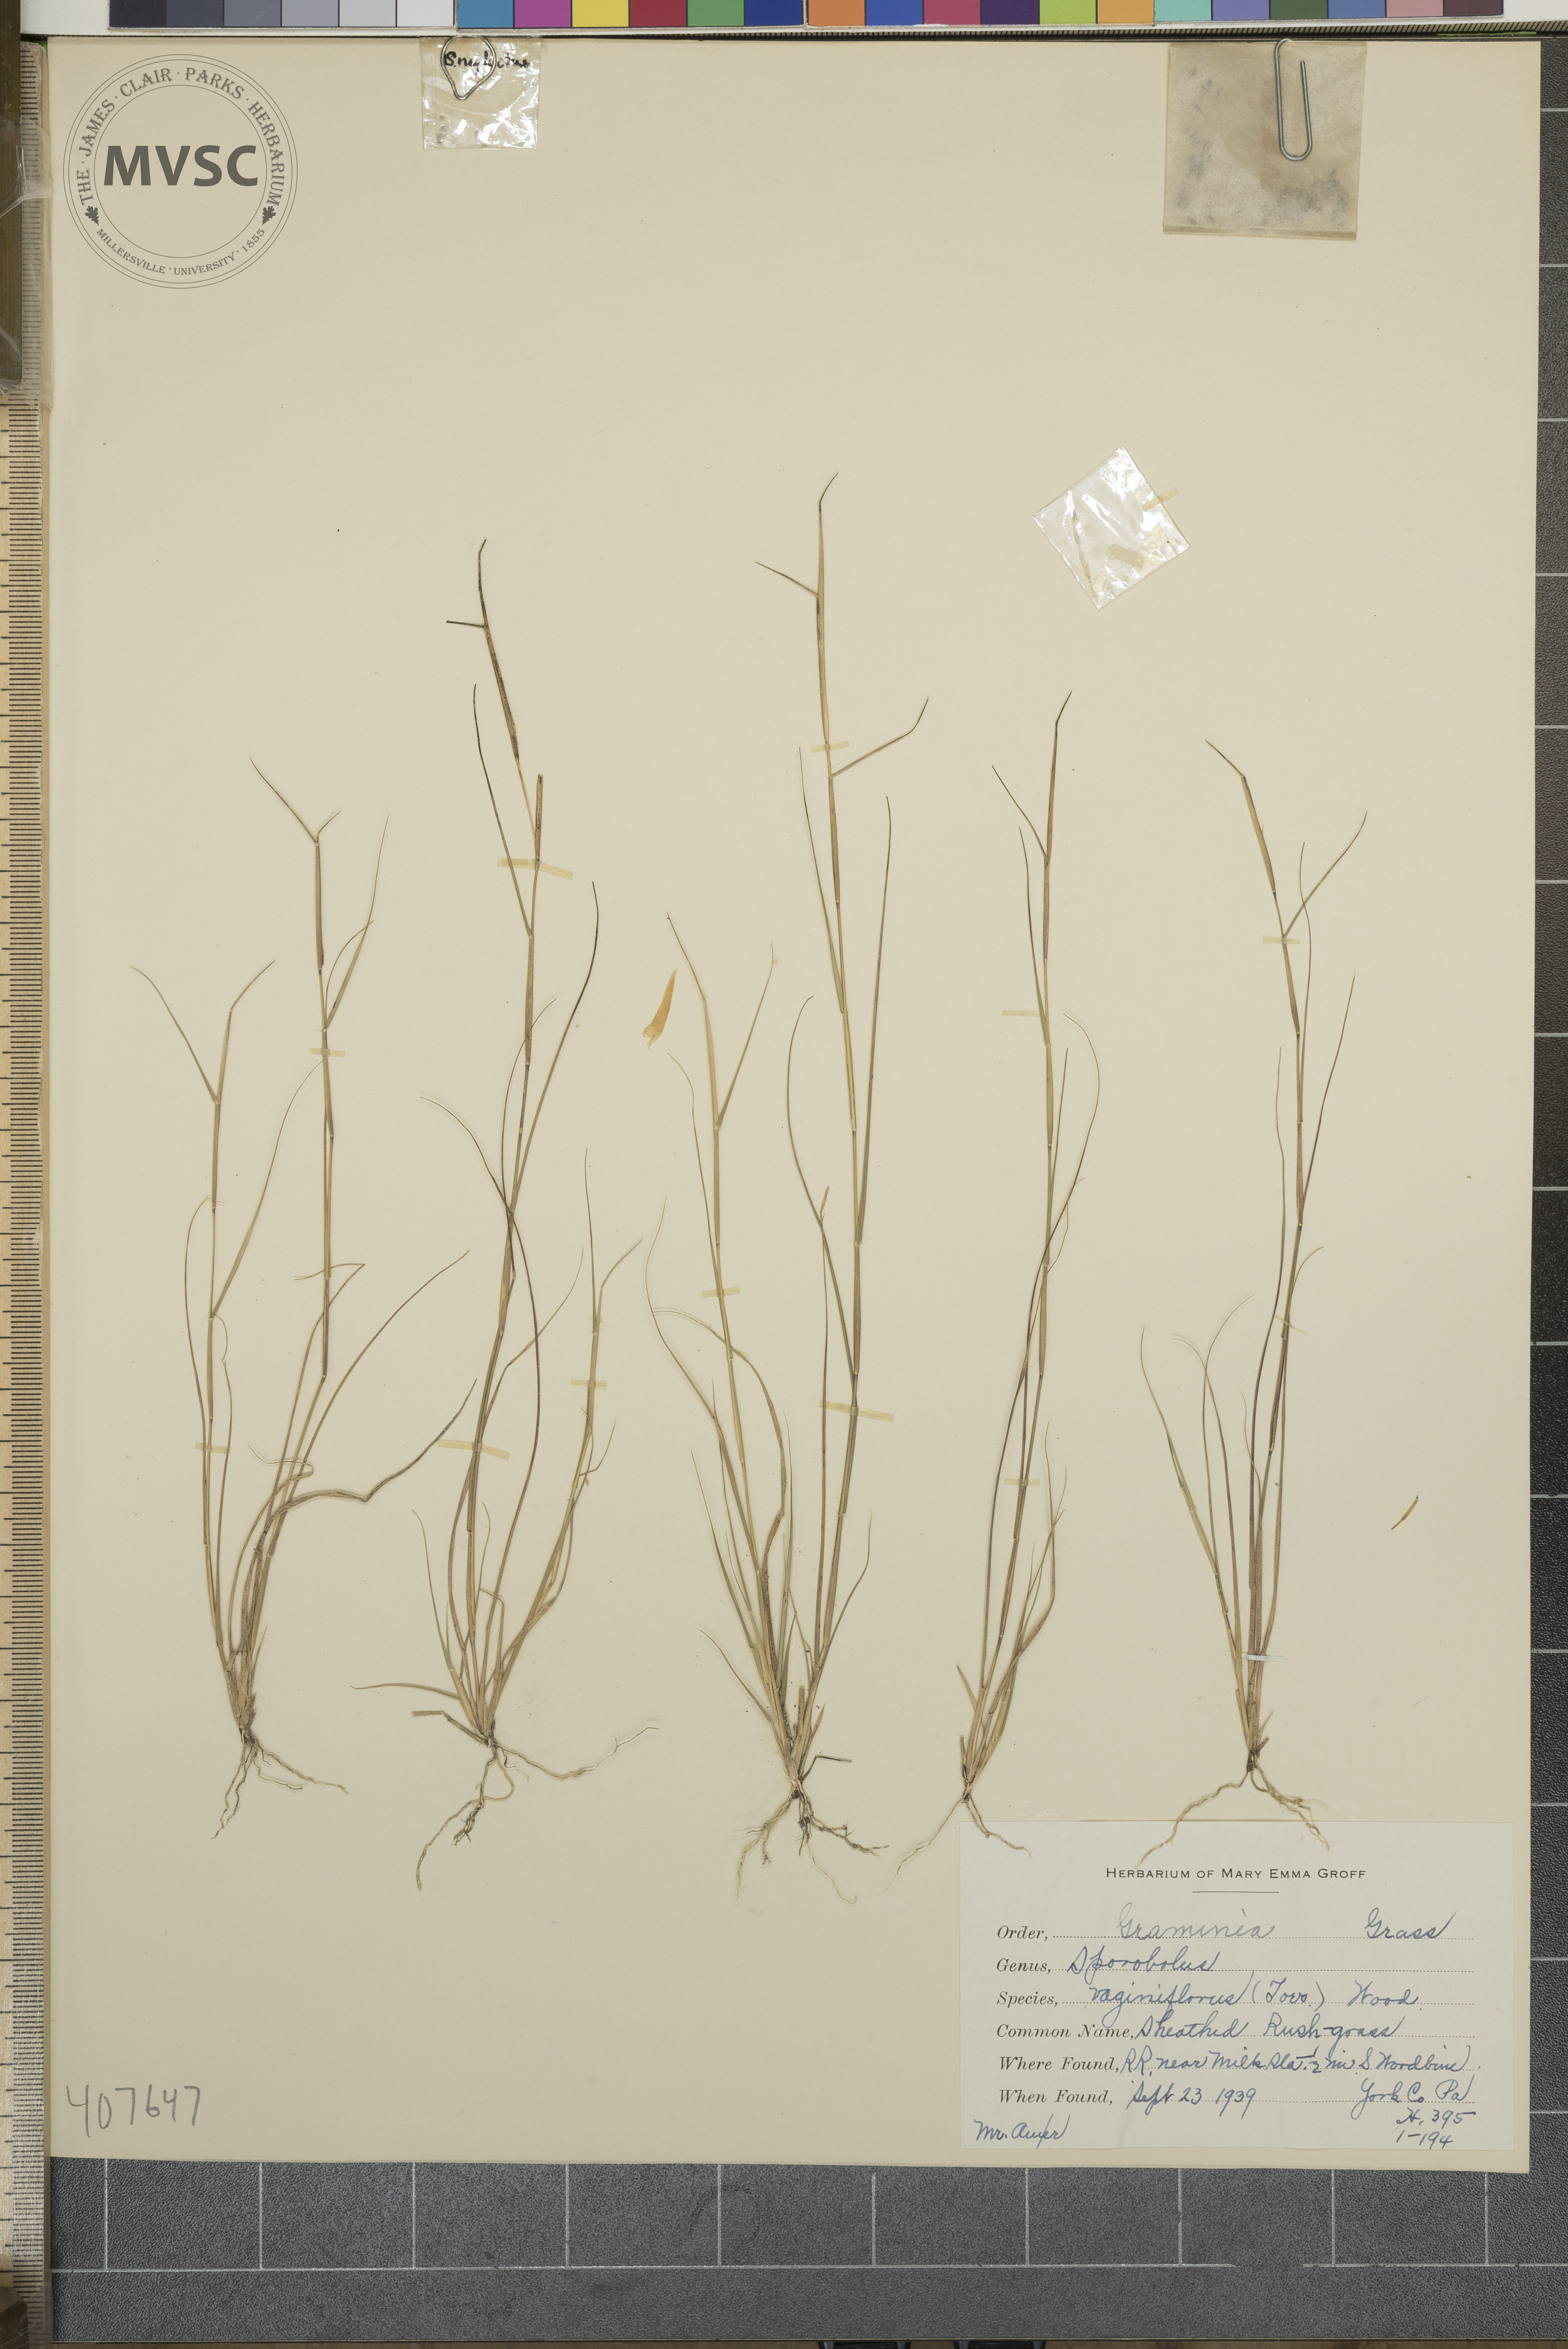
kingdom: Plantae
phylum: Tracheophyta
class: Liliopsida
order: Poales
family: Poaceae
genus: Sporobolus
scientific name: Sporobolus vaginiflorus
